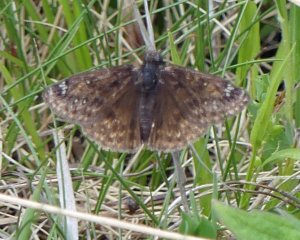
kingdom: Animalia
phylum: Arthropoda
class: Insecta
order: Lepidoptera
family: Hesperiidae
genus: Gesta
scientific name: Gesta
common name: Juvenal's Duskywing
